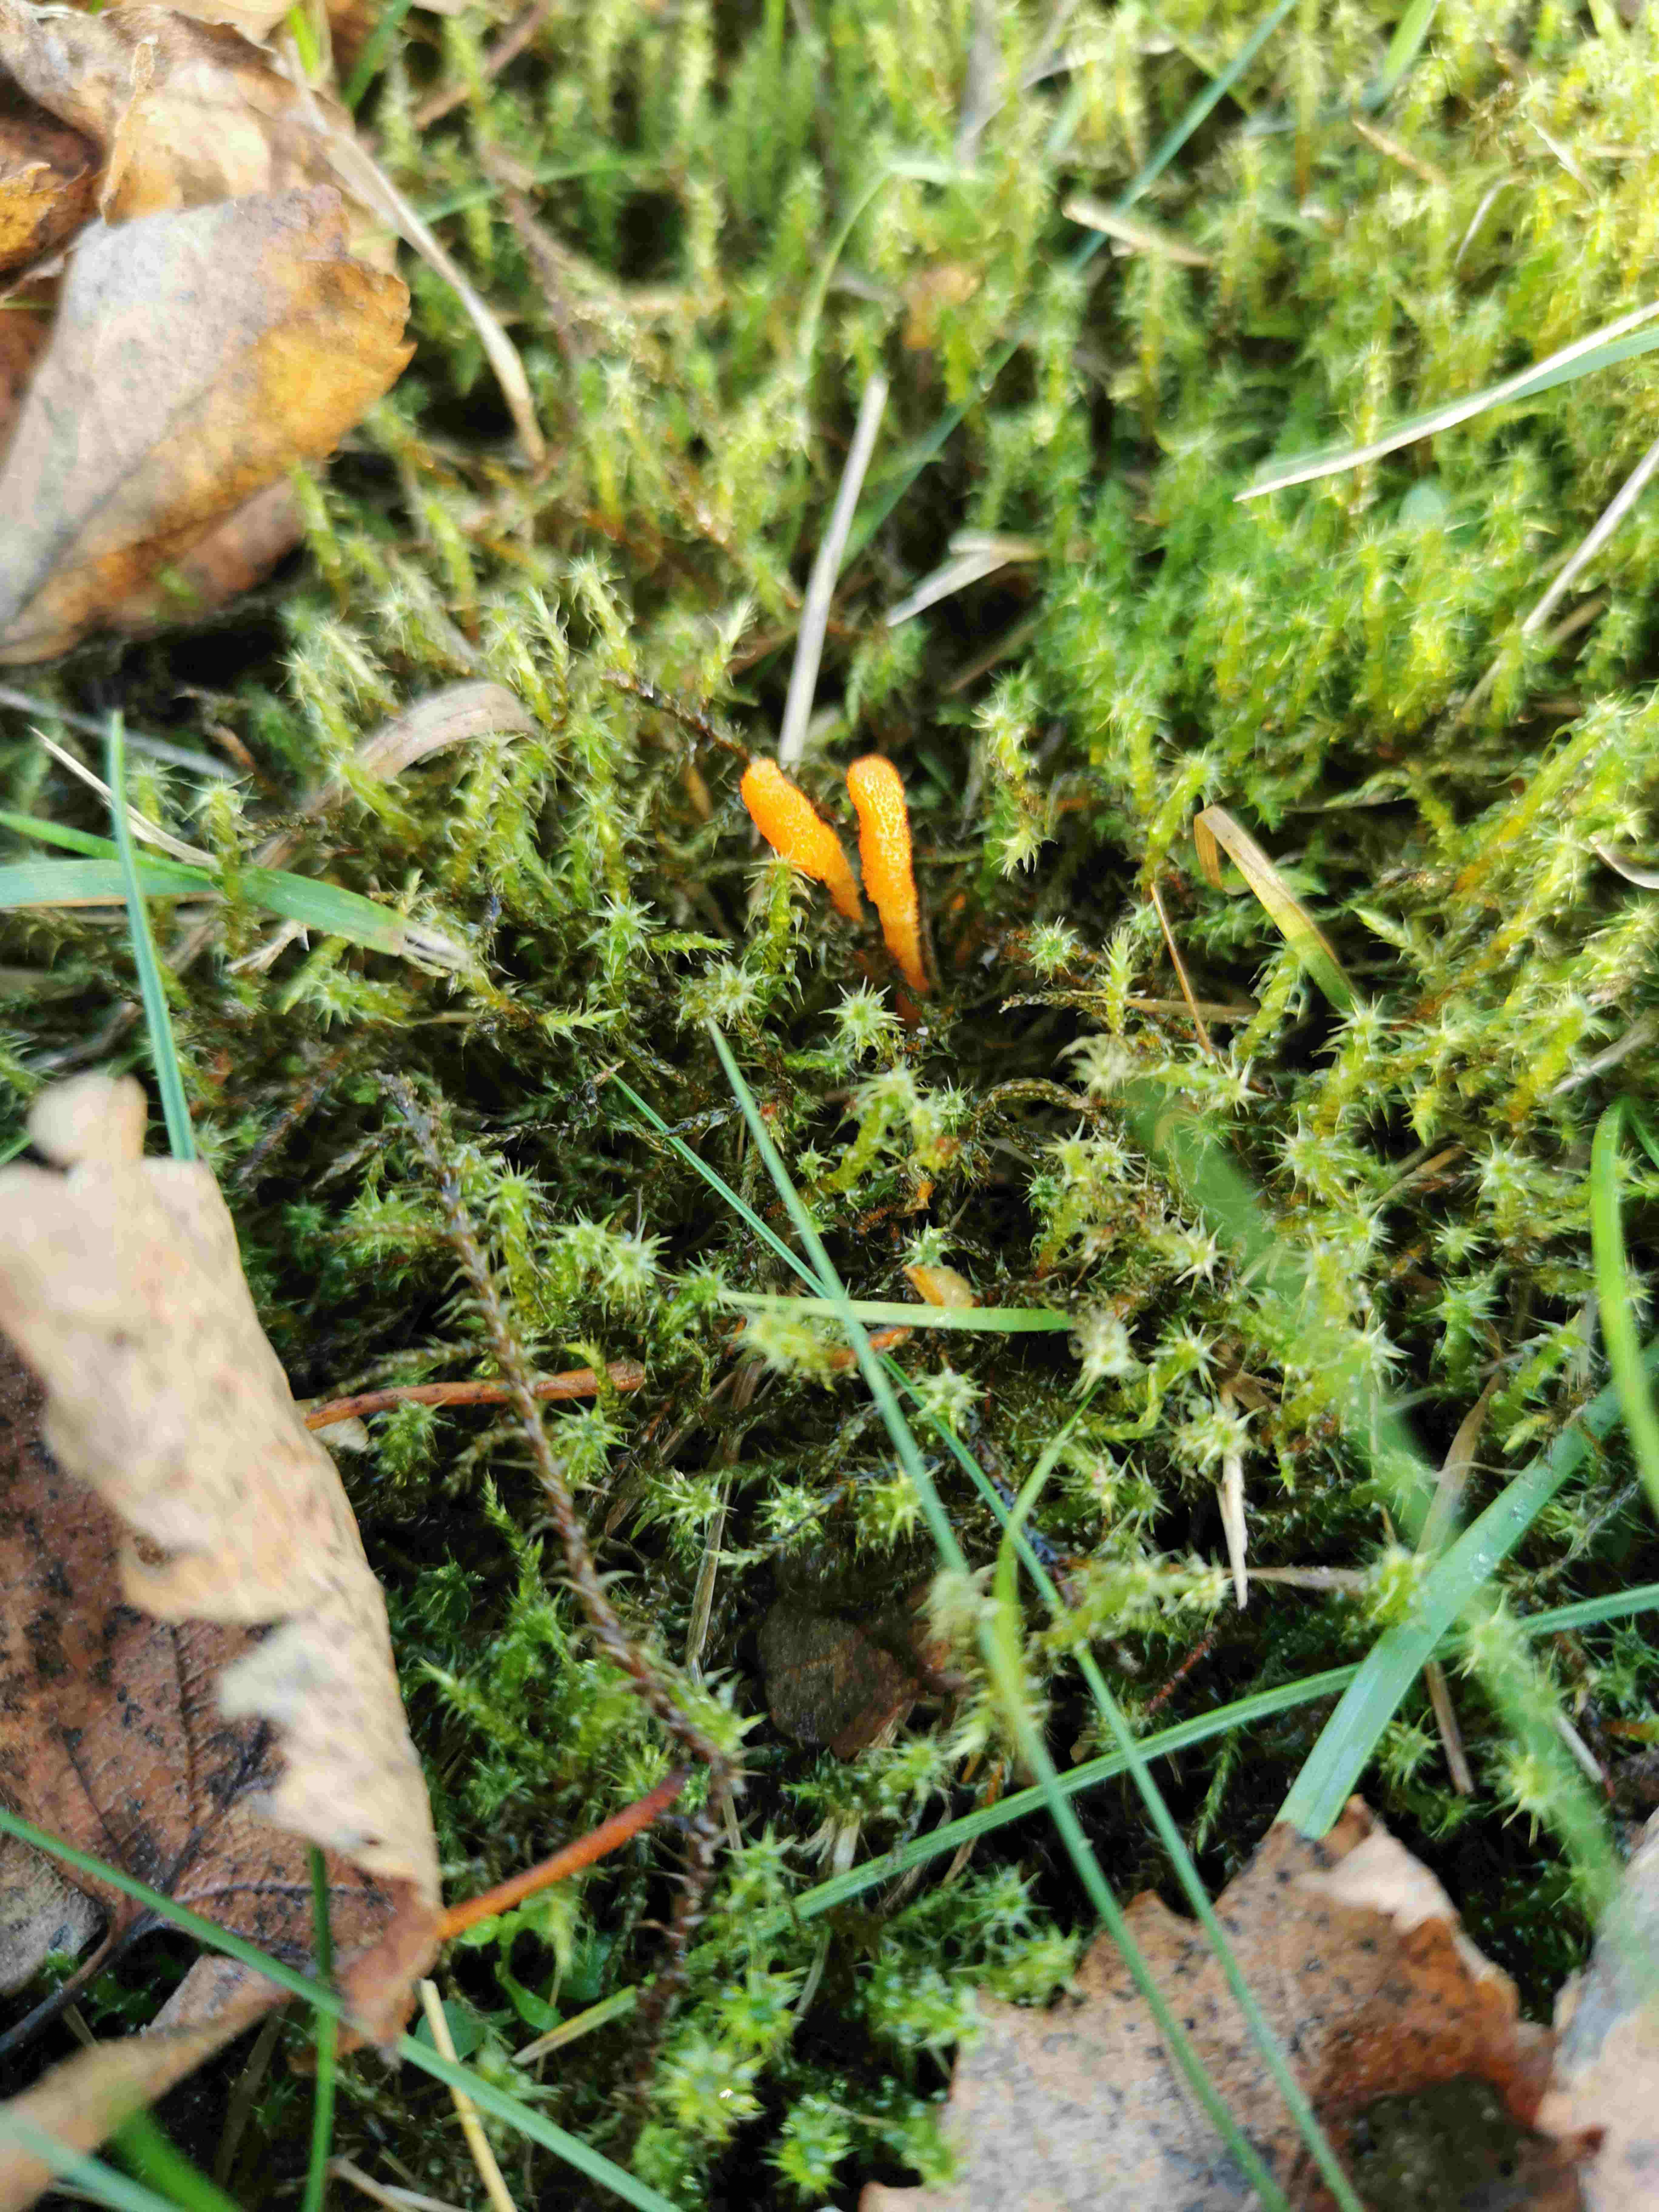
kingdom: Fungi
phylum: Ascomycota
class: Sordariomycetes
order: Hypocreales
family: Cordycipitaceae
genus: Cordyceps
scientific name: Cordyceps militaris
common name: puppe-snyltekølle
